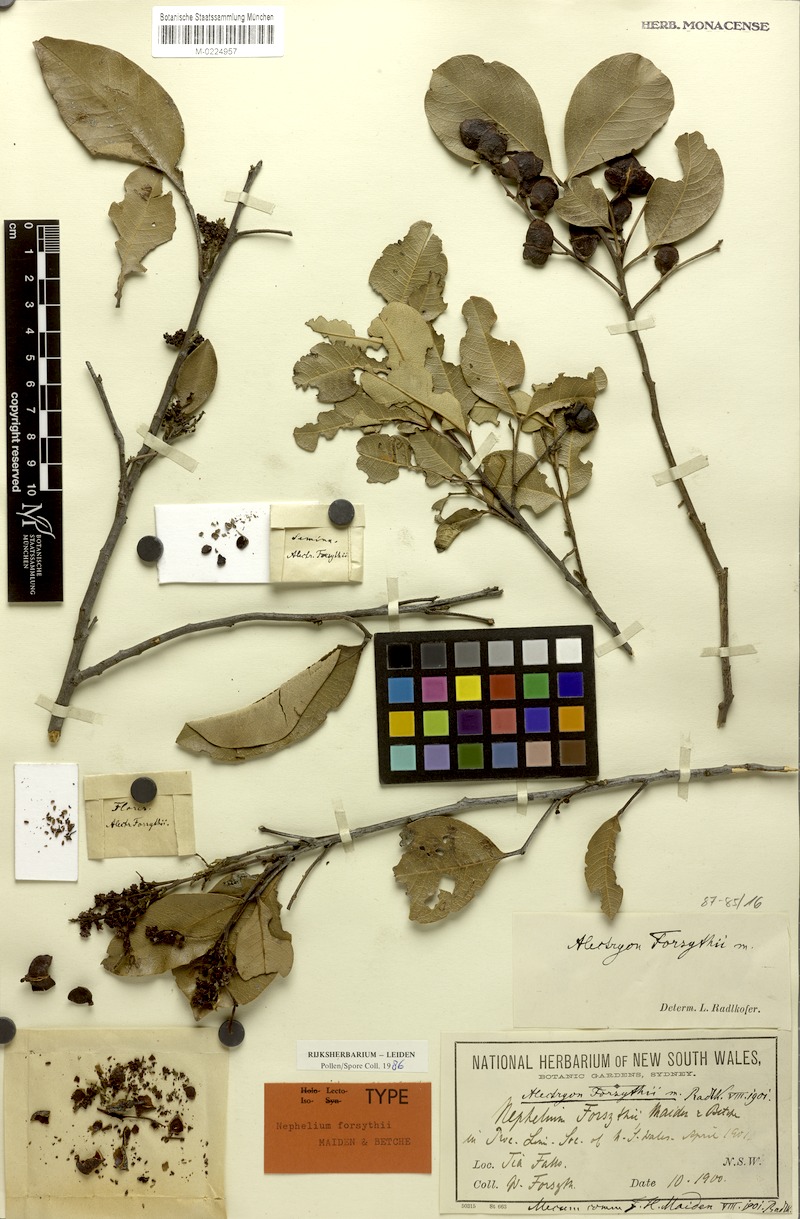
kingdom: Plantae
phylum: Tracheophyta
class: Magnoliopsida
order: Sapindales
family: Sapindaceae
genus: Alectryon
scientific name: Alectryon forsythii
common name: George alectryon
